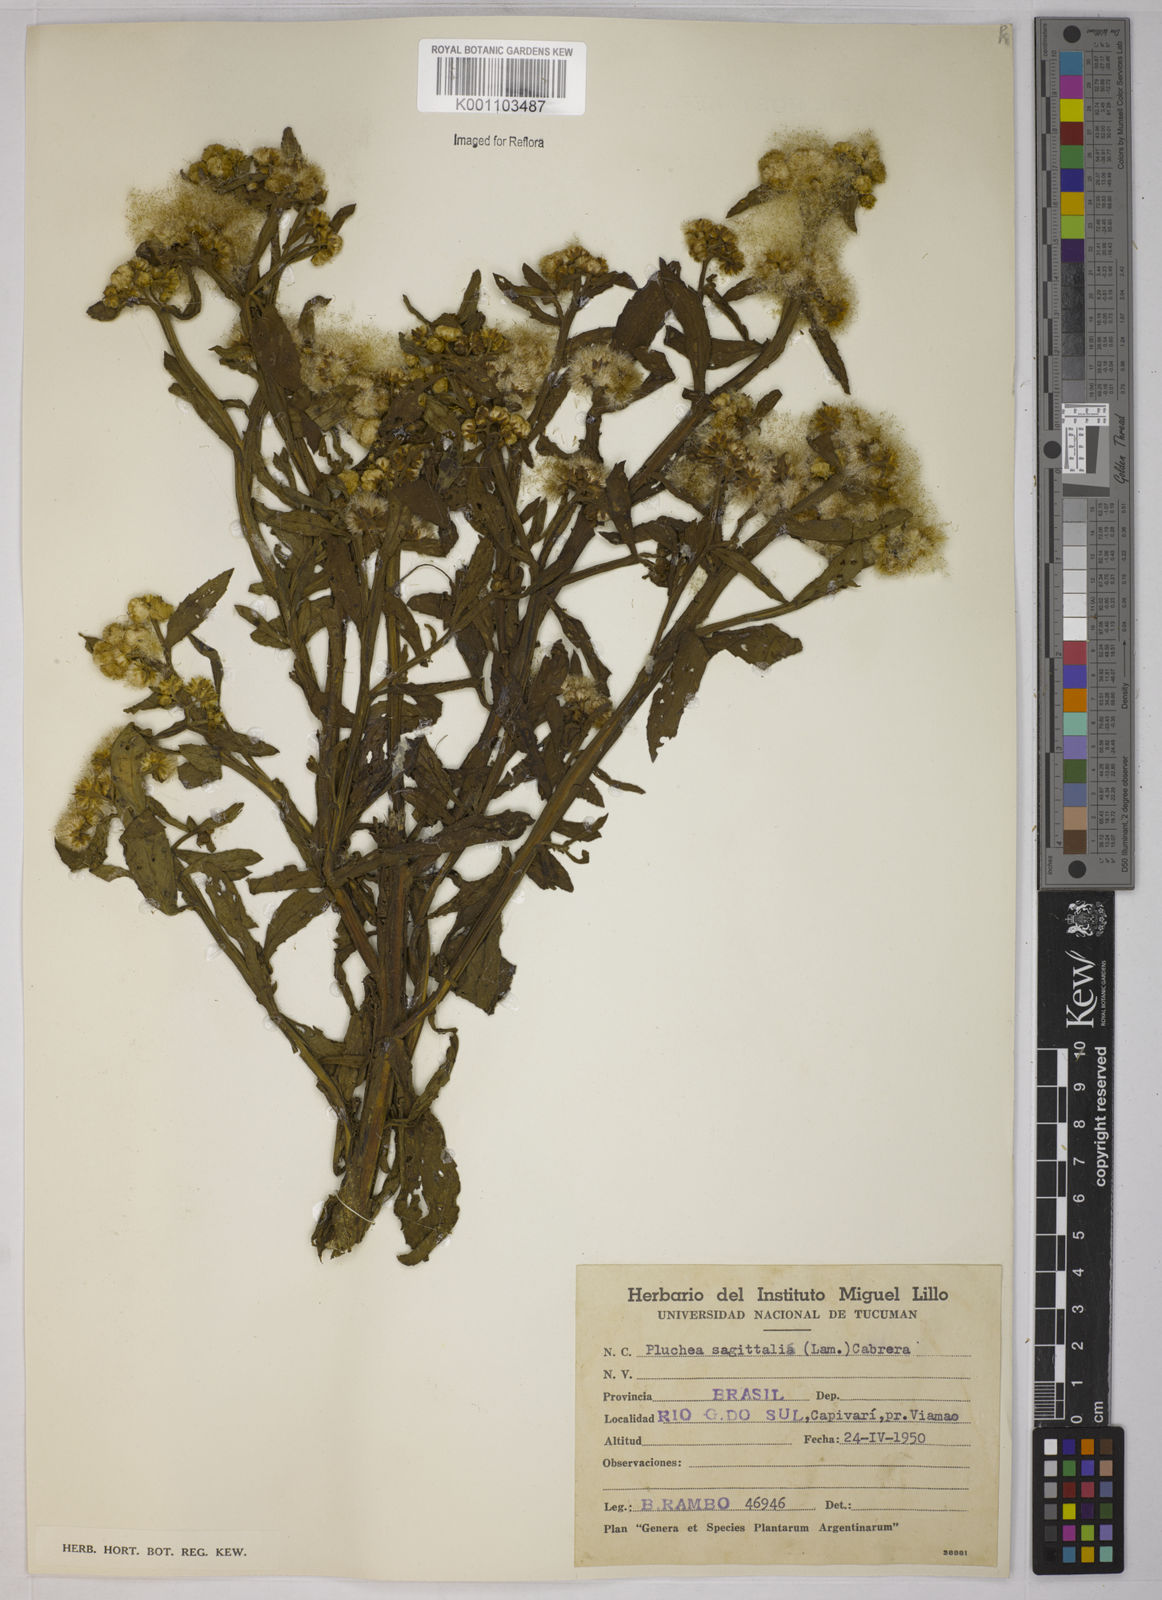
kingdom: Plantae
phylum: Tracheophyta
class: Magnoliopsida
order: Asterales
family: Asteraceae
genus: Pluchea
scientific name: Pluchea sagittalis
